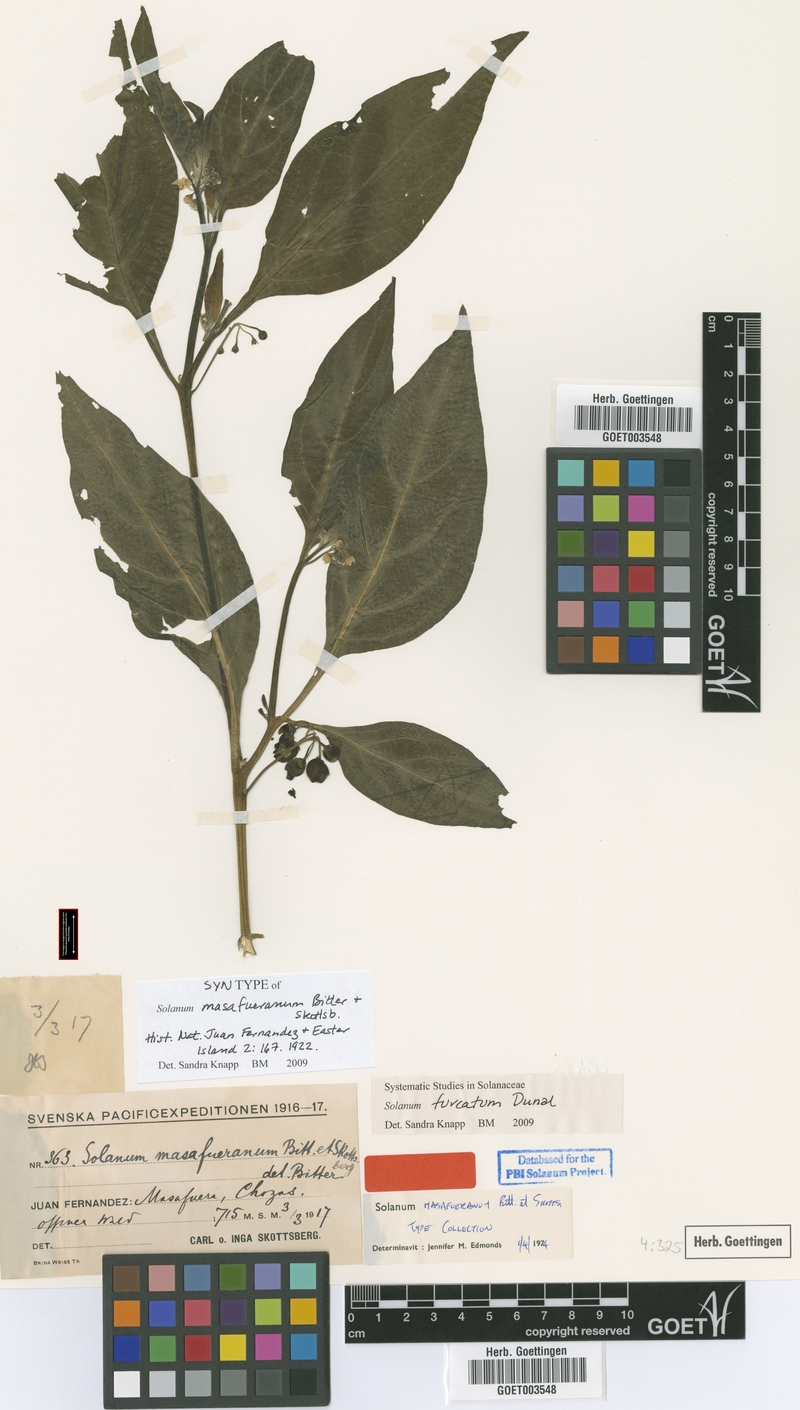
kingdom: Plantae
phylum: Tracheophyta
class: Magnoliopsida
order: Solanales
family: Solanaceae
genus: Solanum
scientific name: Solanum furcatum
